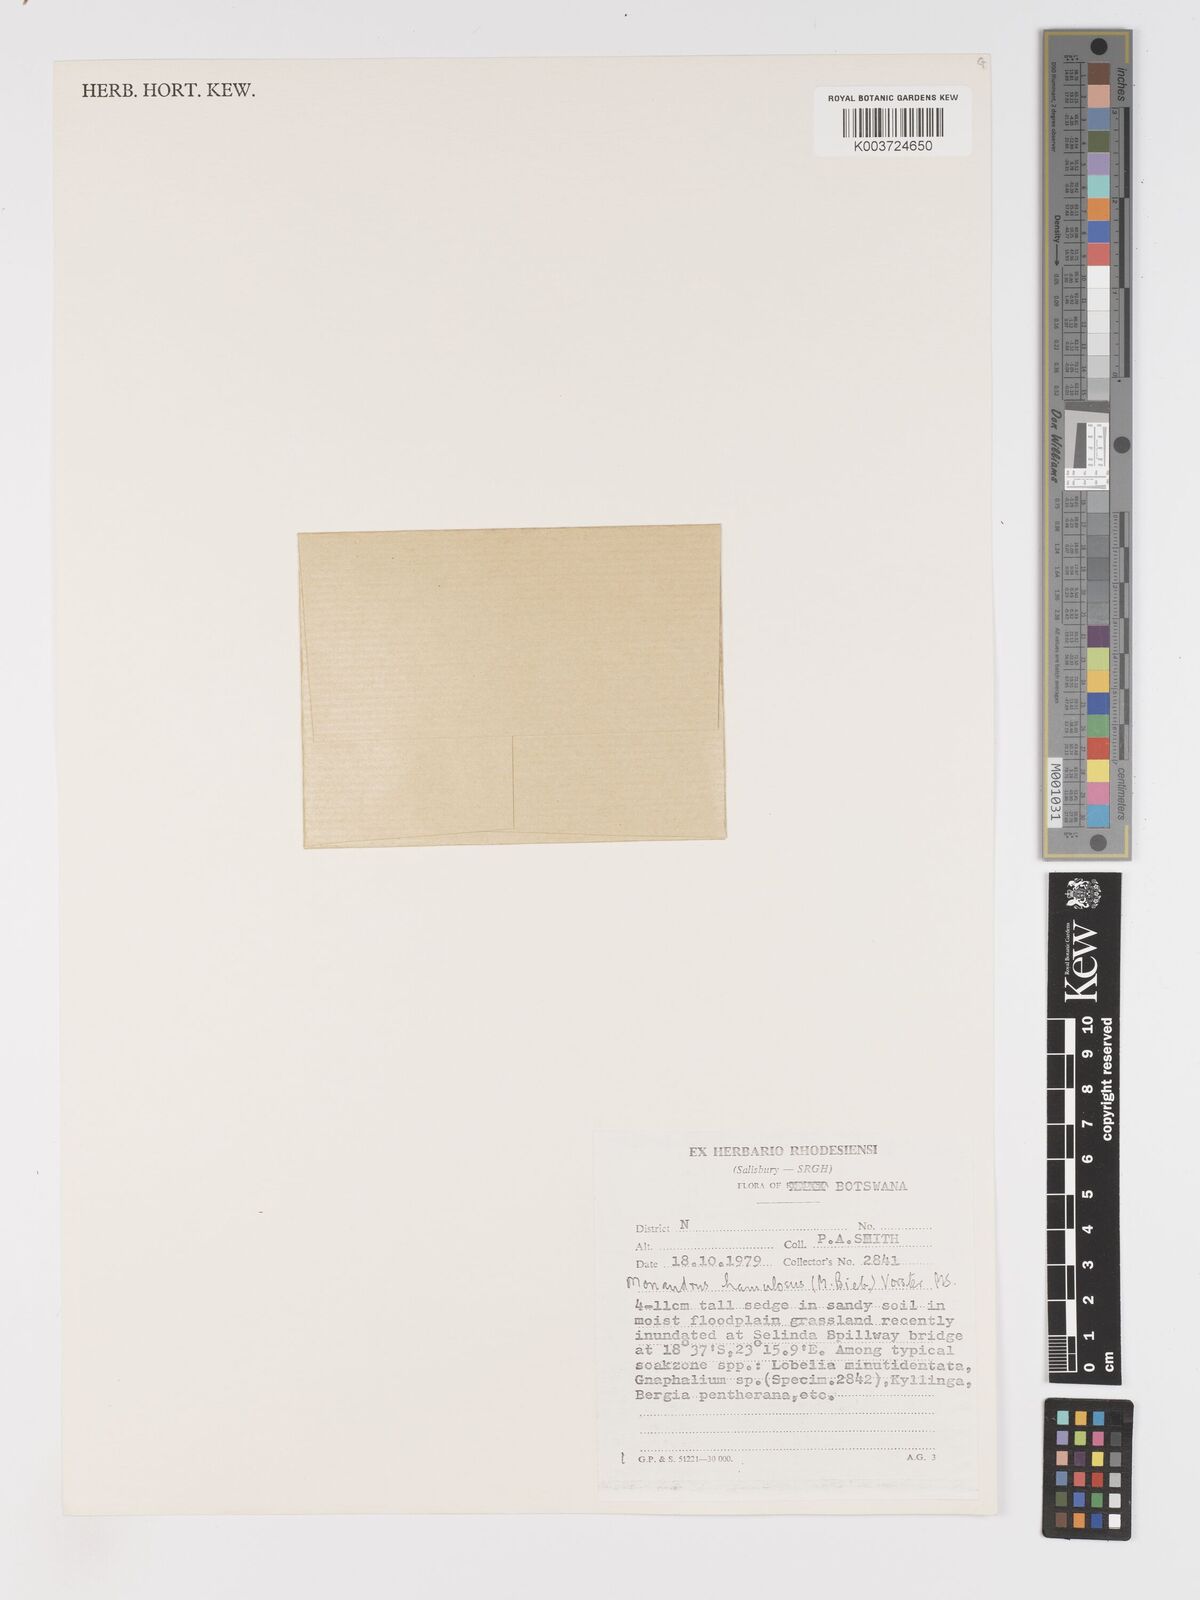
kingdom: Plantae
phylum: Tracheophyta
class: Liliopsida
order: Poales
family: Cyperaceae
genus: Cyperus
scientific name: Cyperus hamulosus
